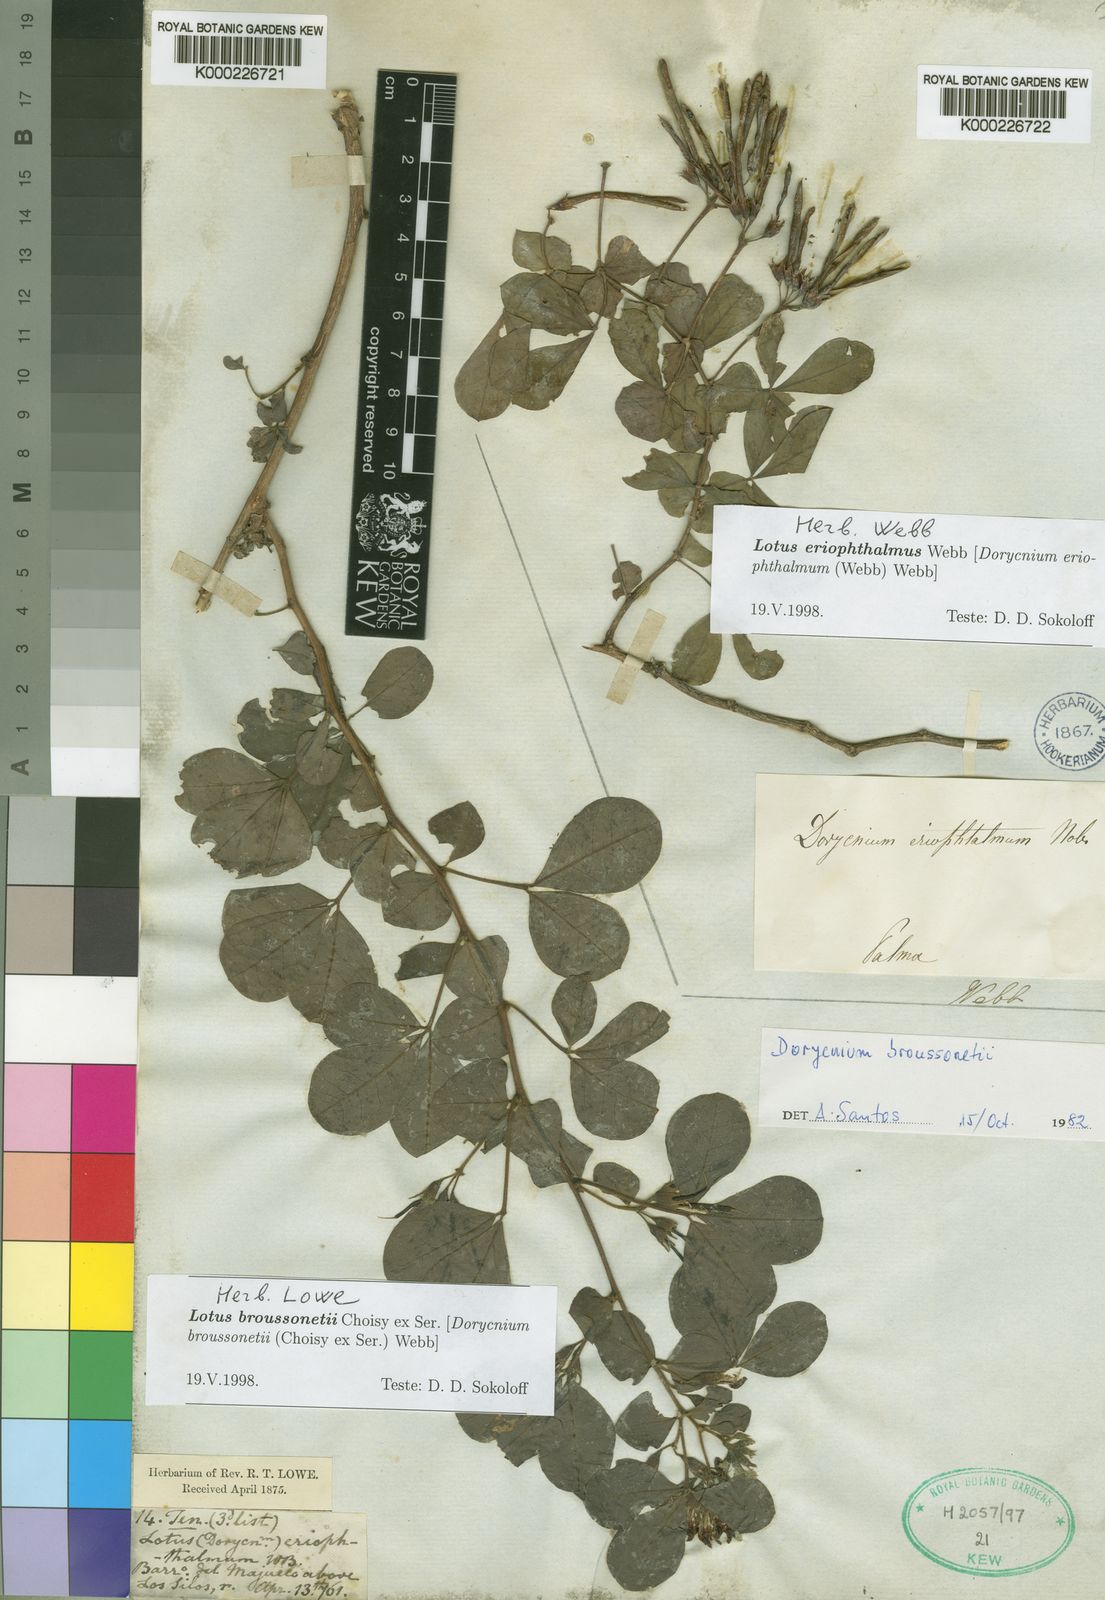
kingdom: Plantae
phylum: Tracheophyta
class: Magnoliopsida
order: Fabales
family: Fabaceae
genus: Lotus
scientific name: Lotus eriophthalmus
